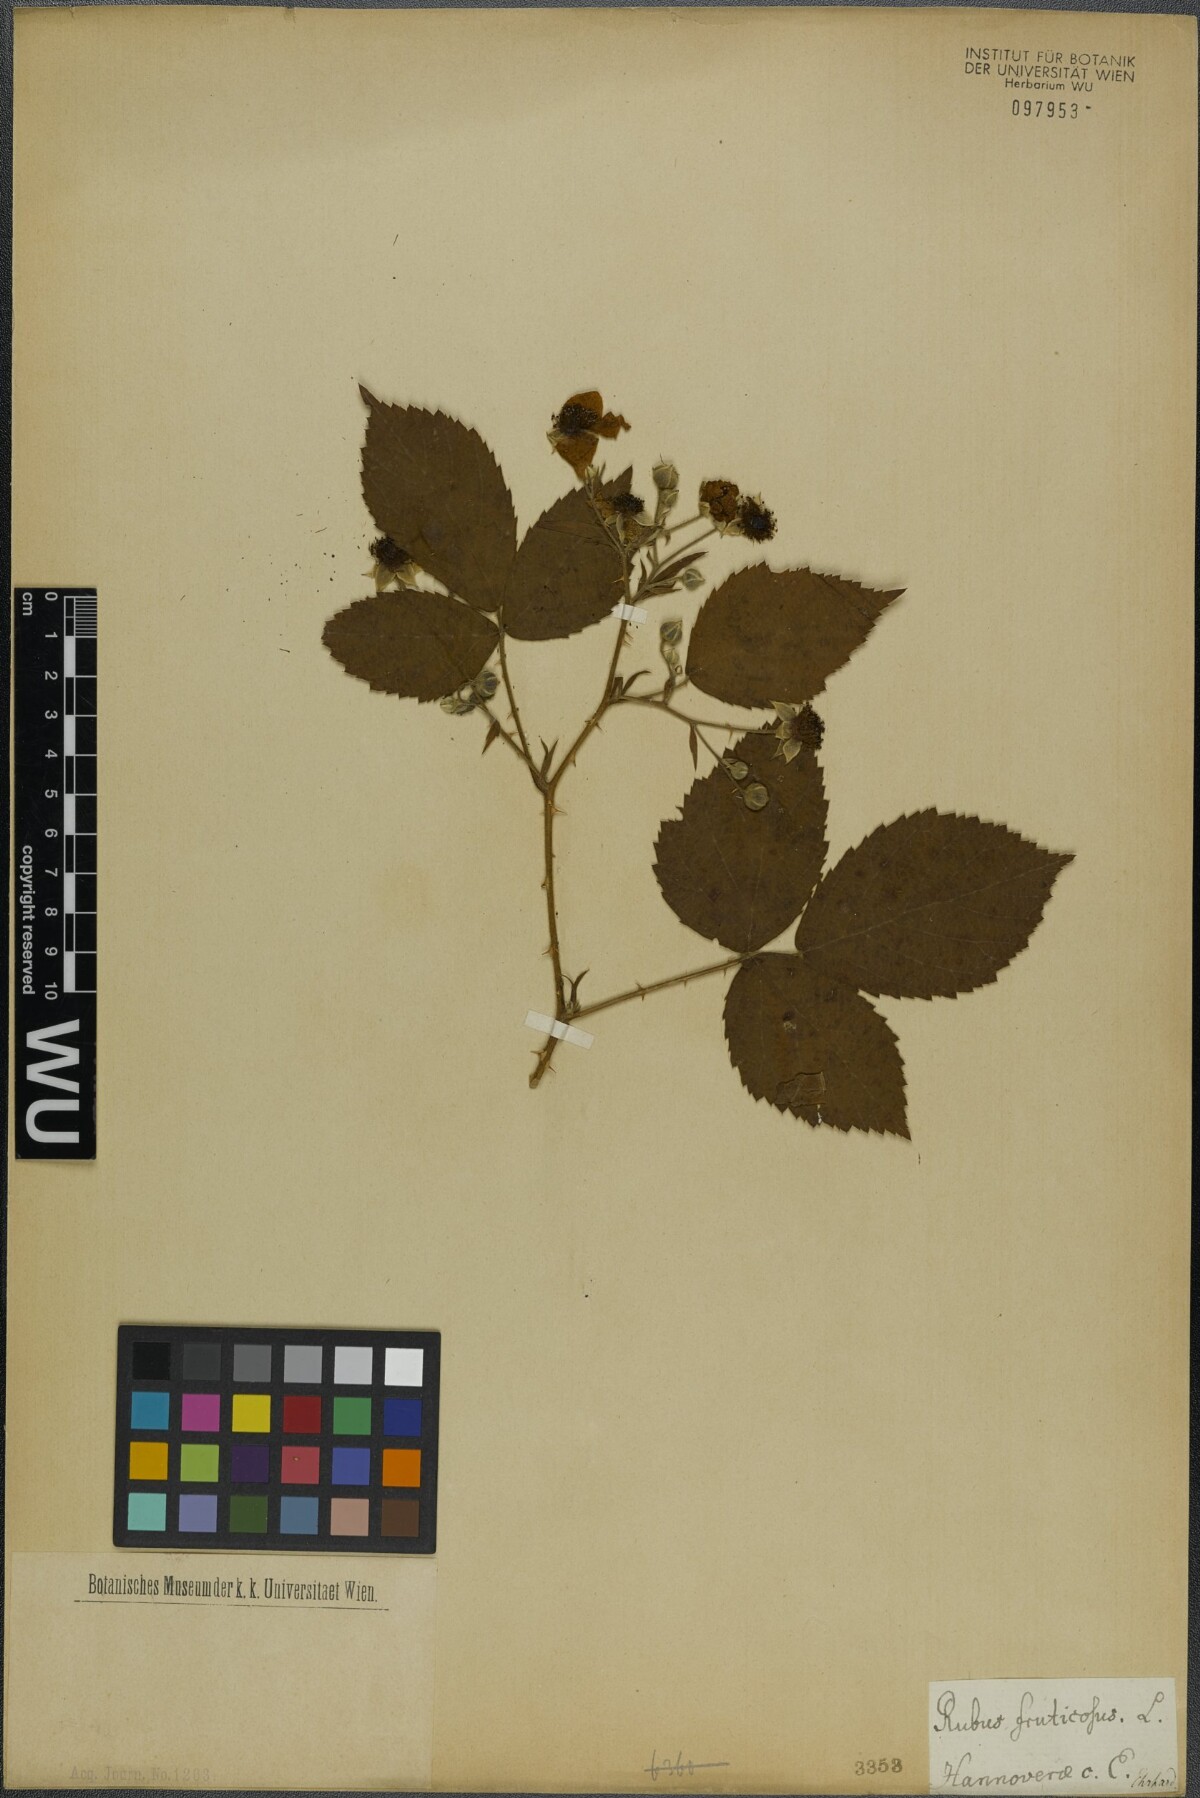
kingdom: Plantae
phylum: Tracheophyta
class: Magnoliopsida
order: Rosales
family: Rosaceae
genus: Rubus
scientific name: Rubus fruticosus
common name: Blackberry, bramble
